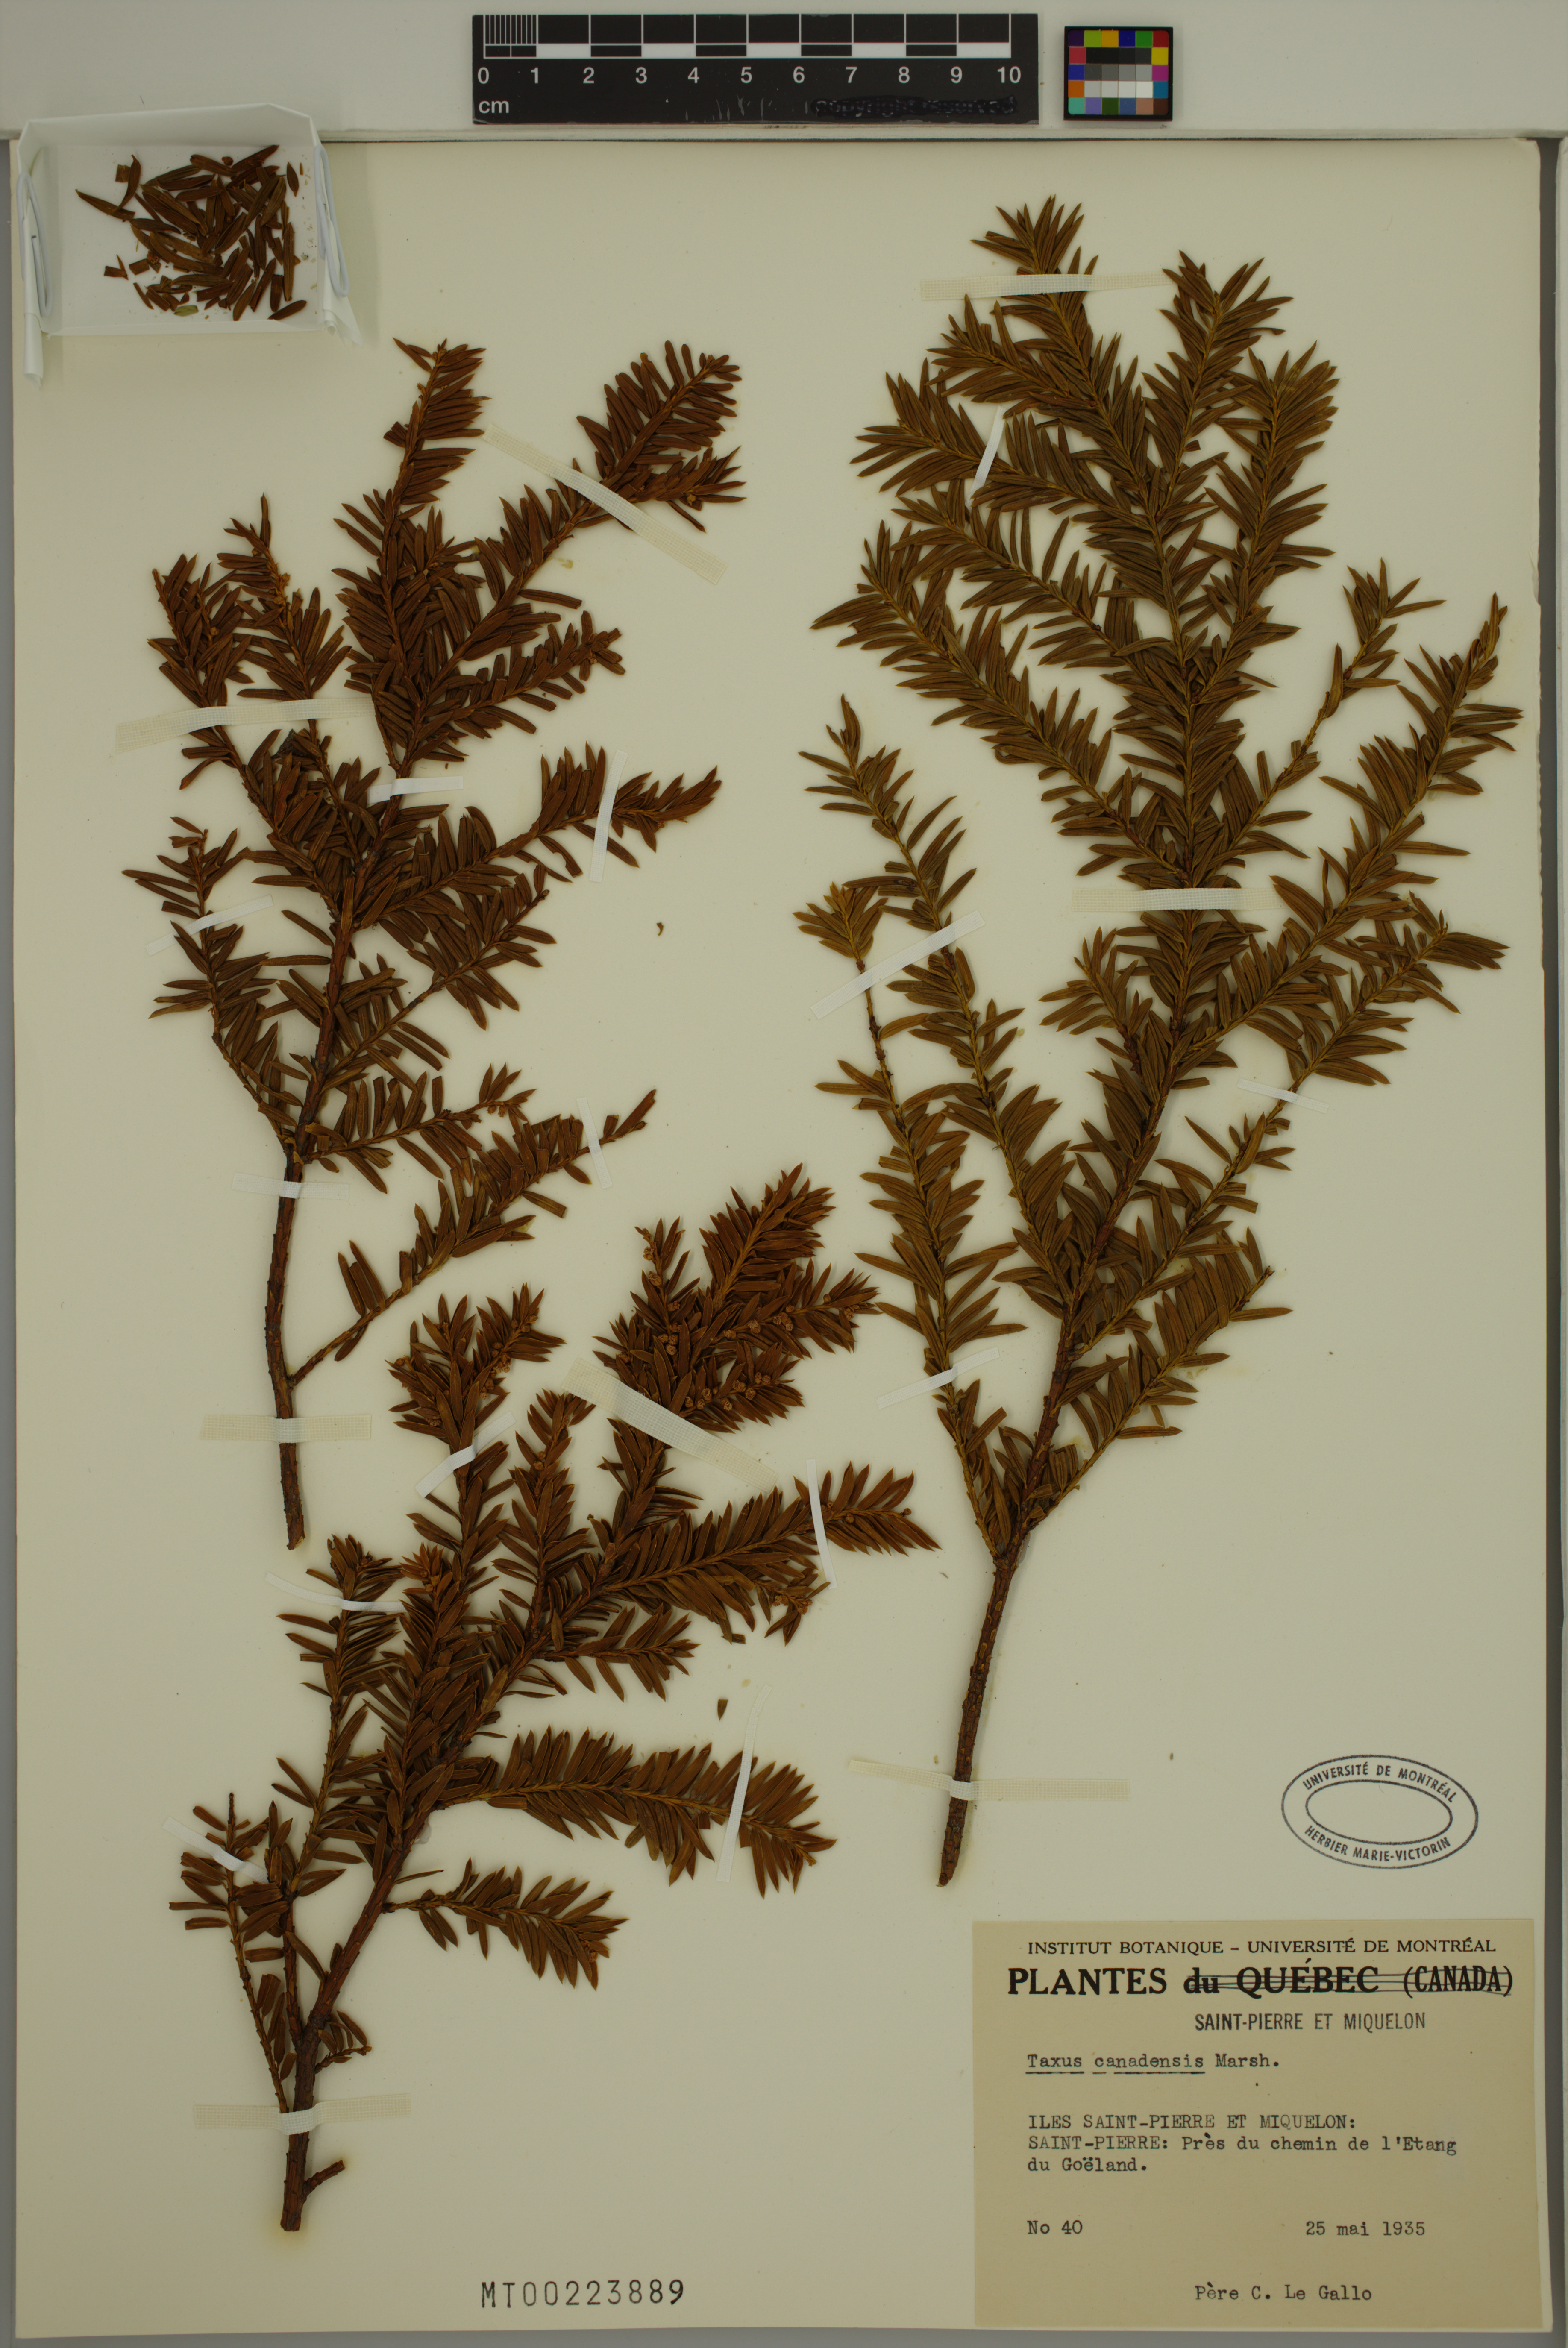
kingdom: Plantae
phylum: Tracheophyta
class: Pinopsida
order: Pinales
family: Taxaceae
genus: Taxus
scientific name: Taxus canadensis
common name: American yew
